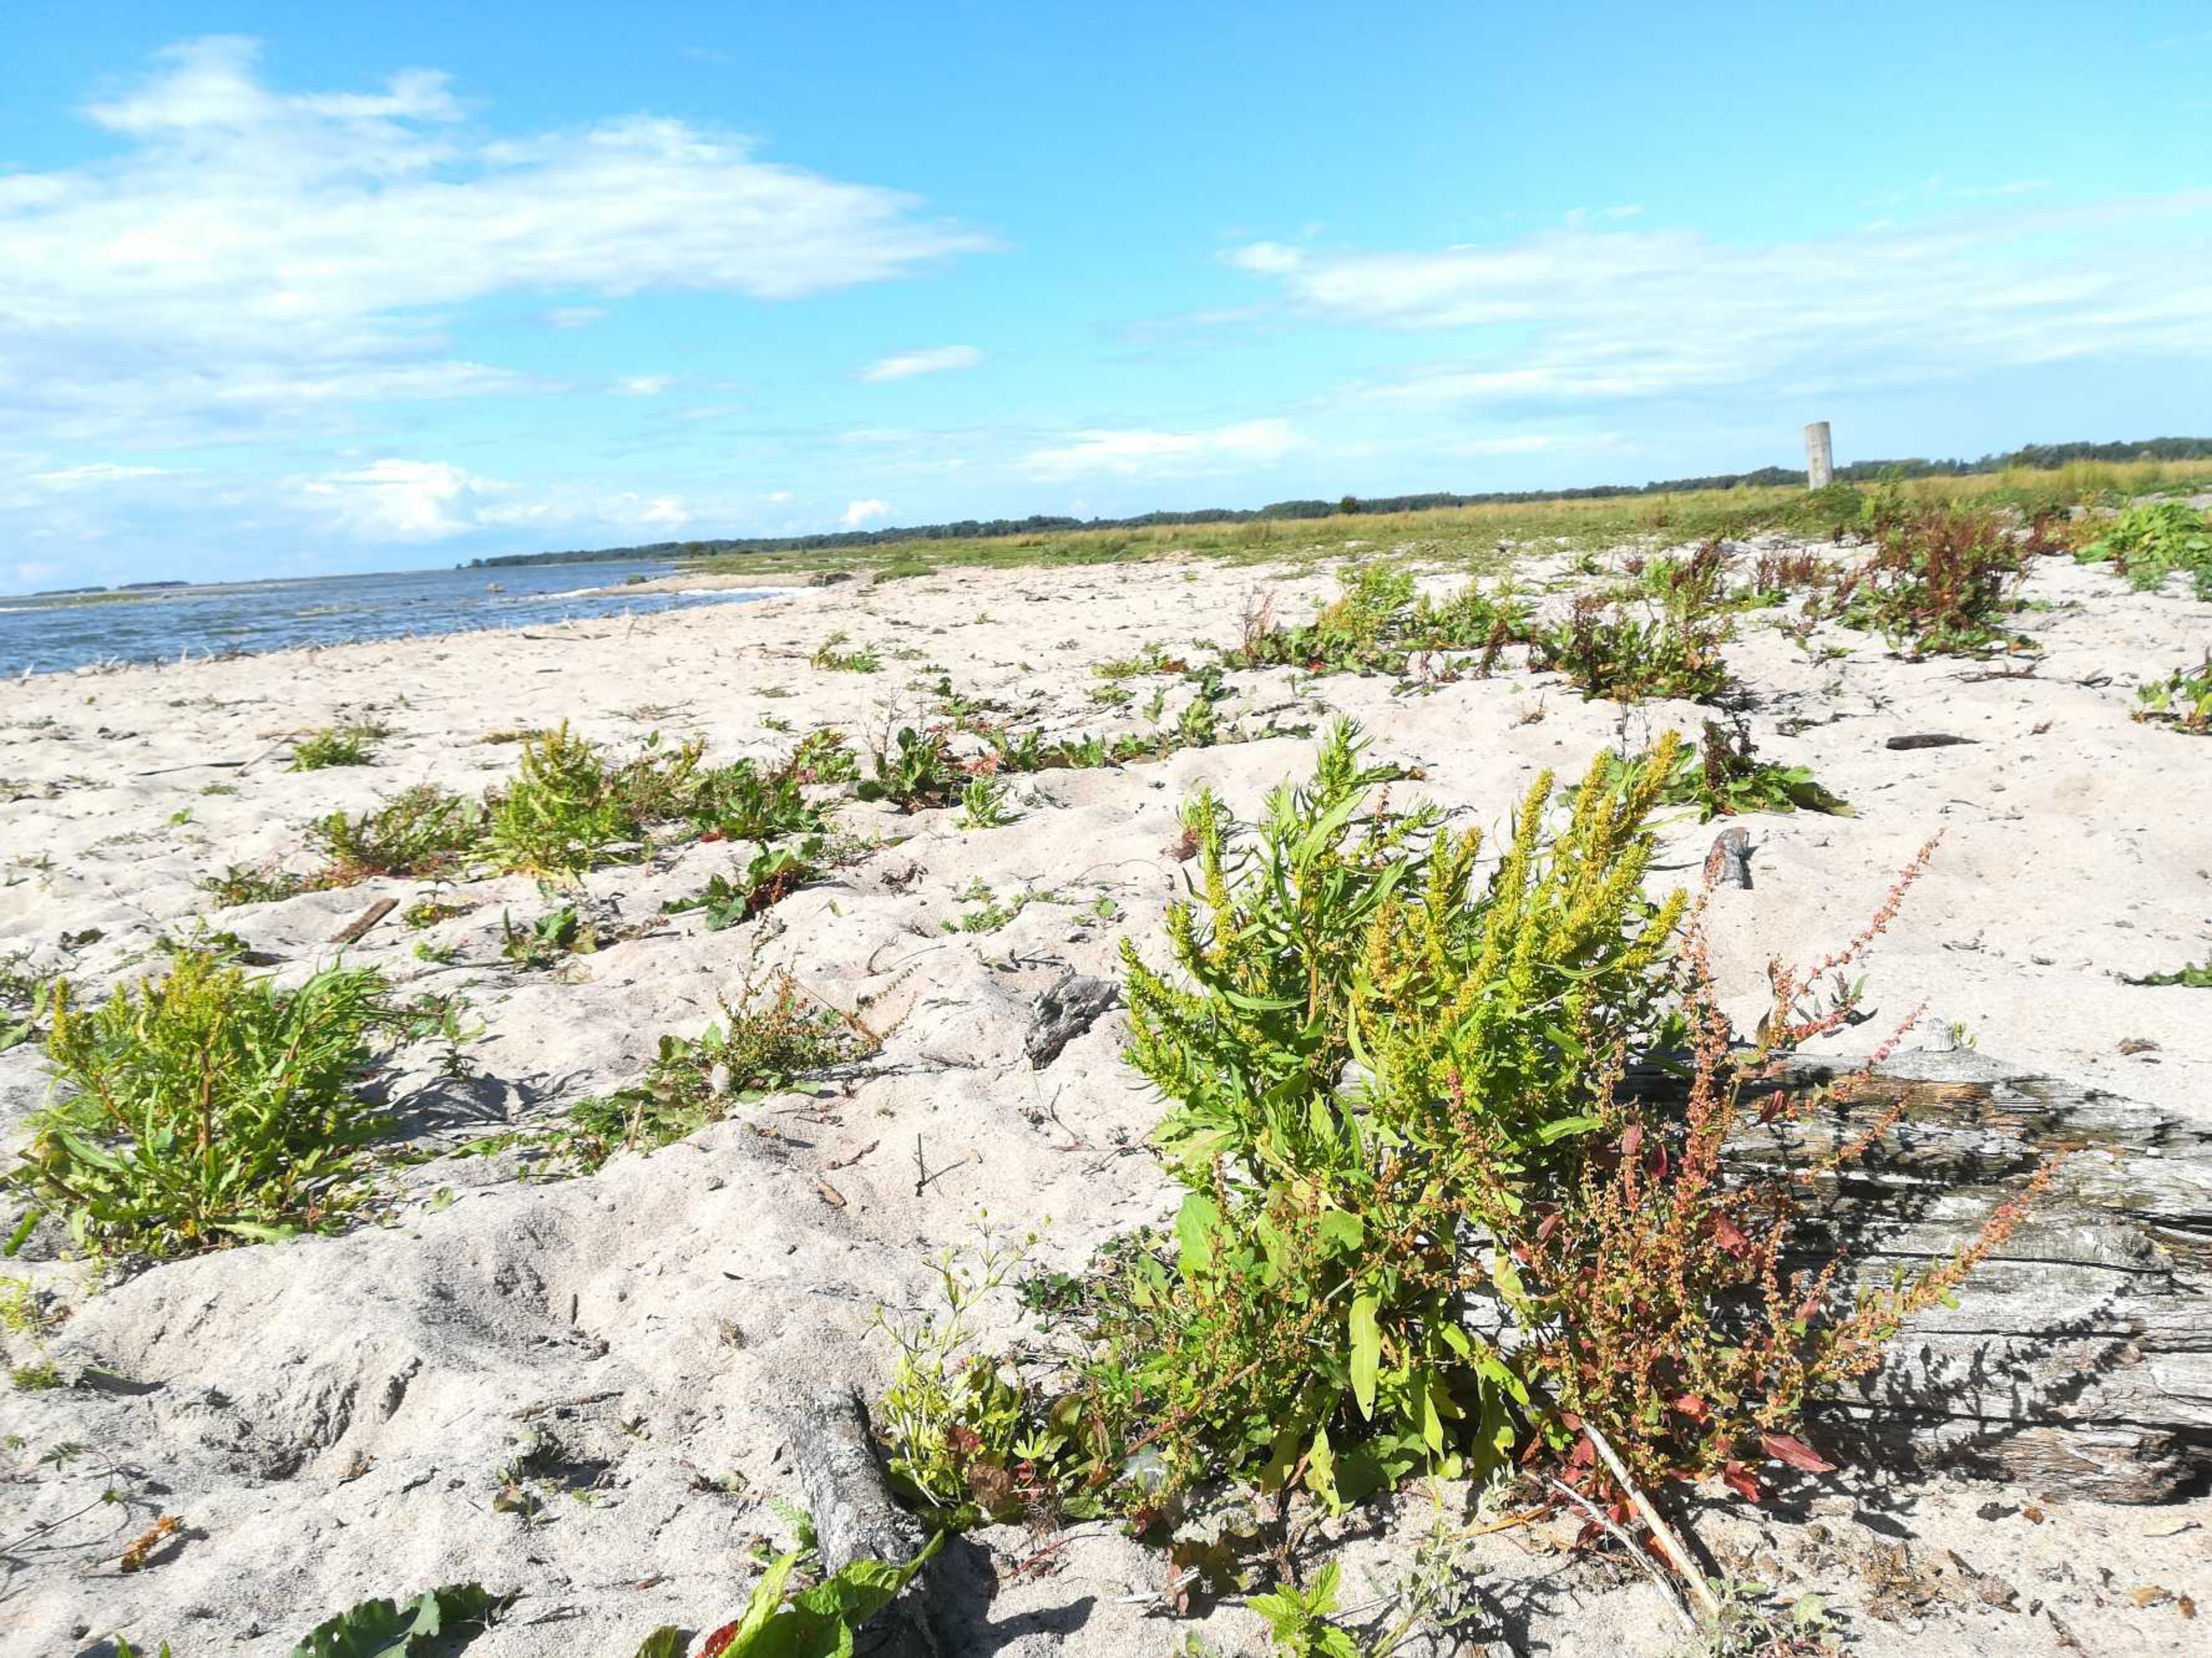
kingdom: Plantae
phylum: Tracheophyta
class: Magnoliopsida
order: Caryophyllales
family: Polygonaceae
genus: Rumex
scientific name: Rumex maritimus
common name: Strand-skræppe
